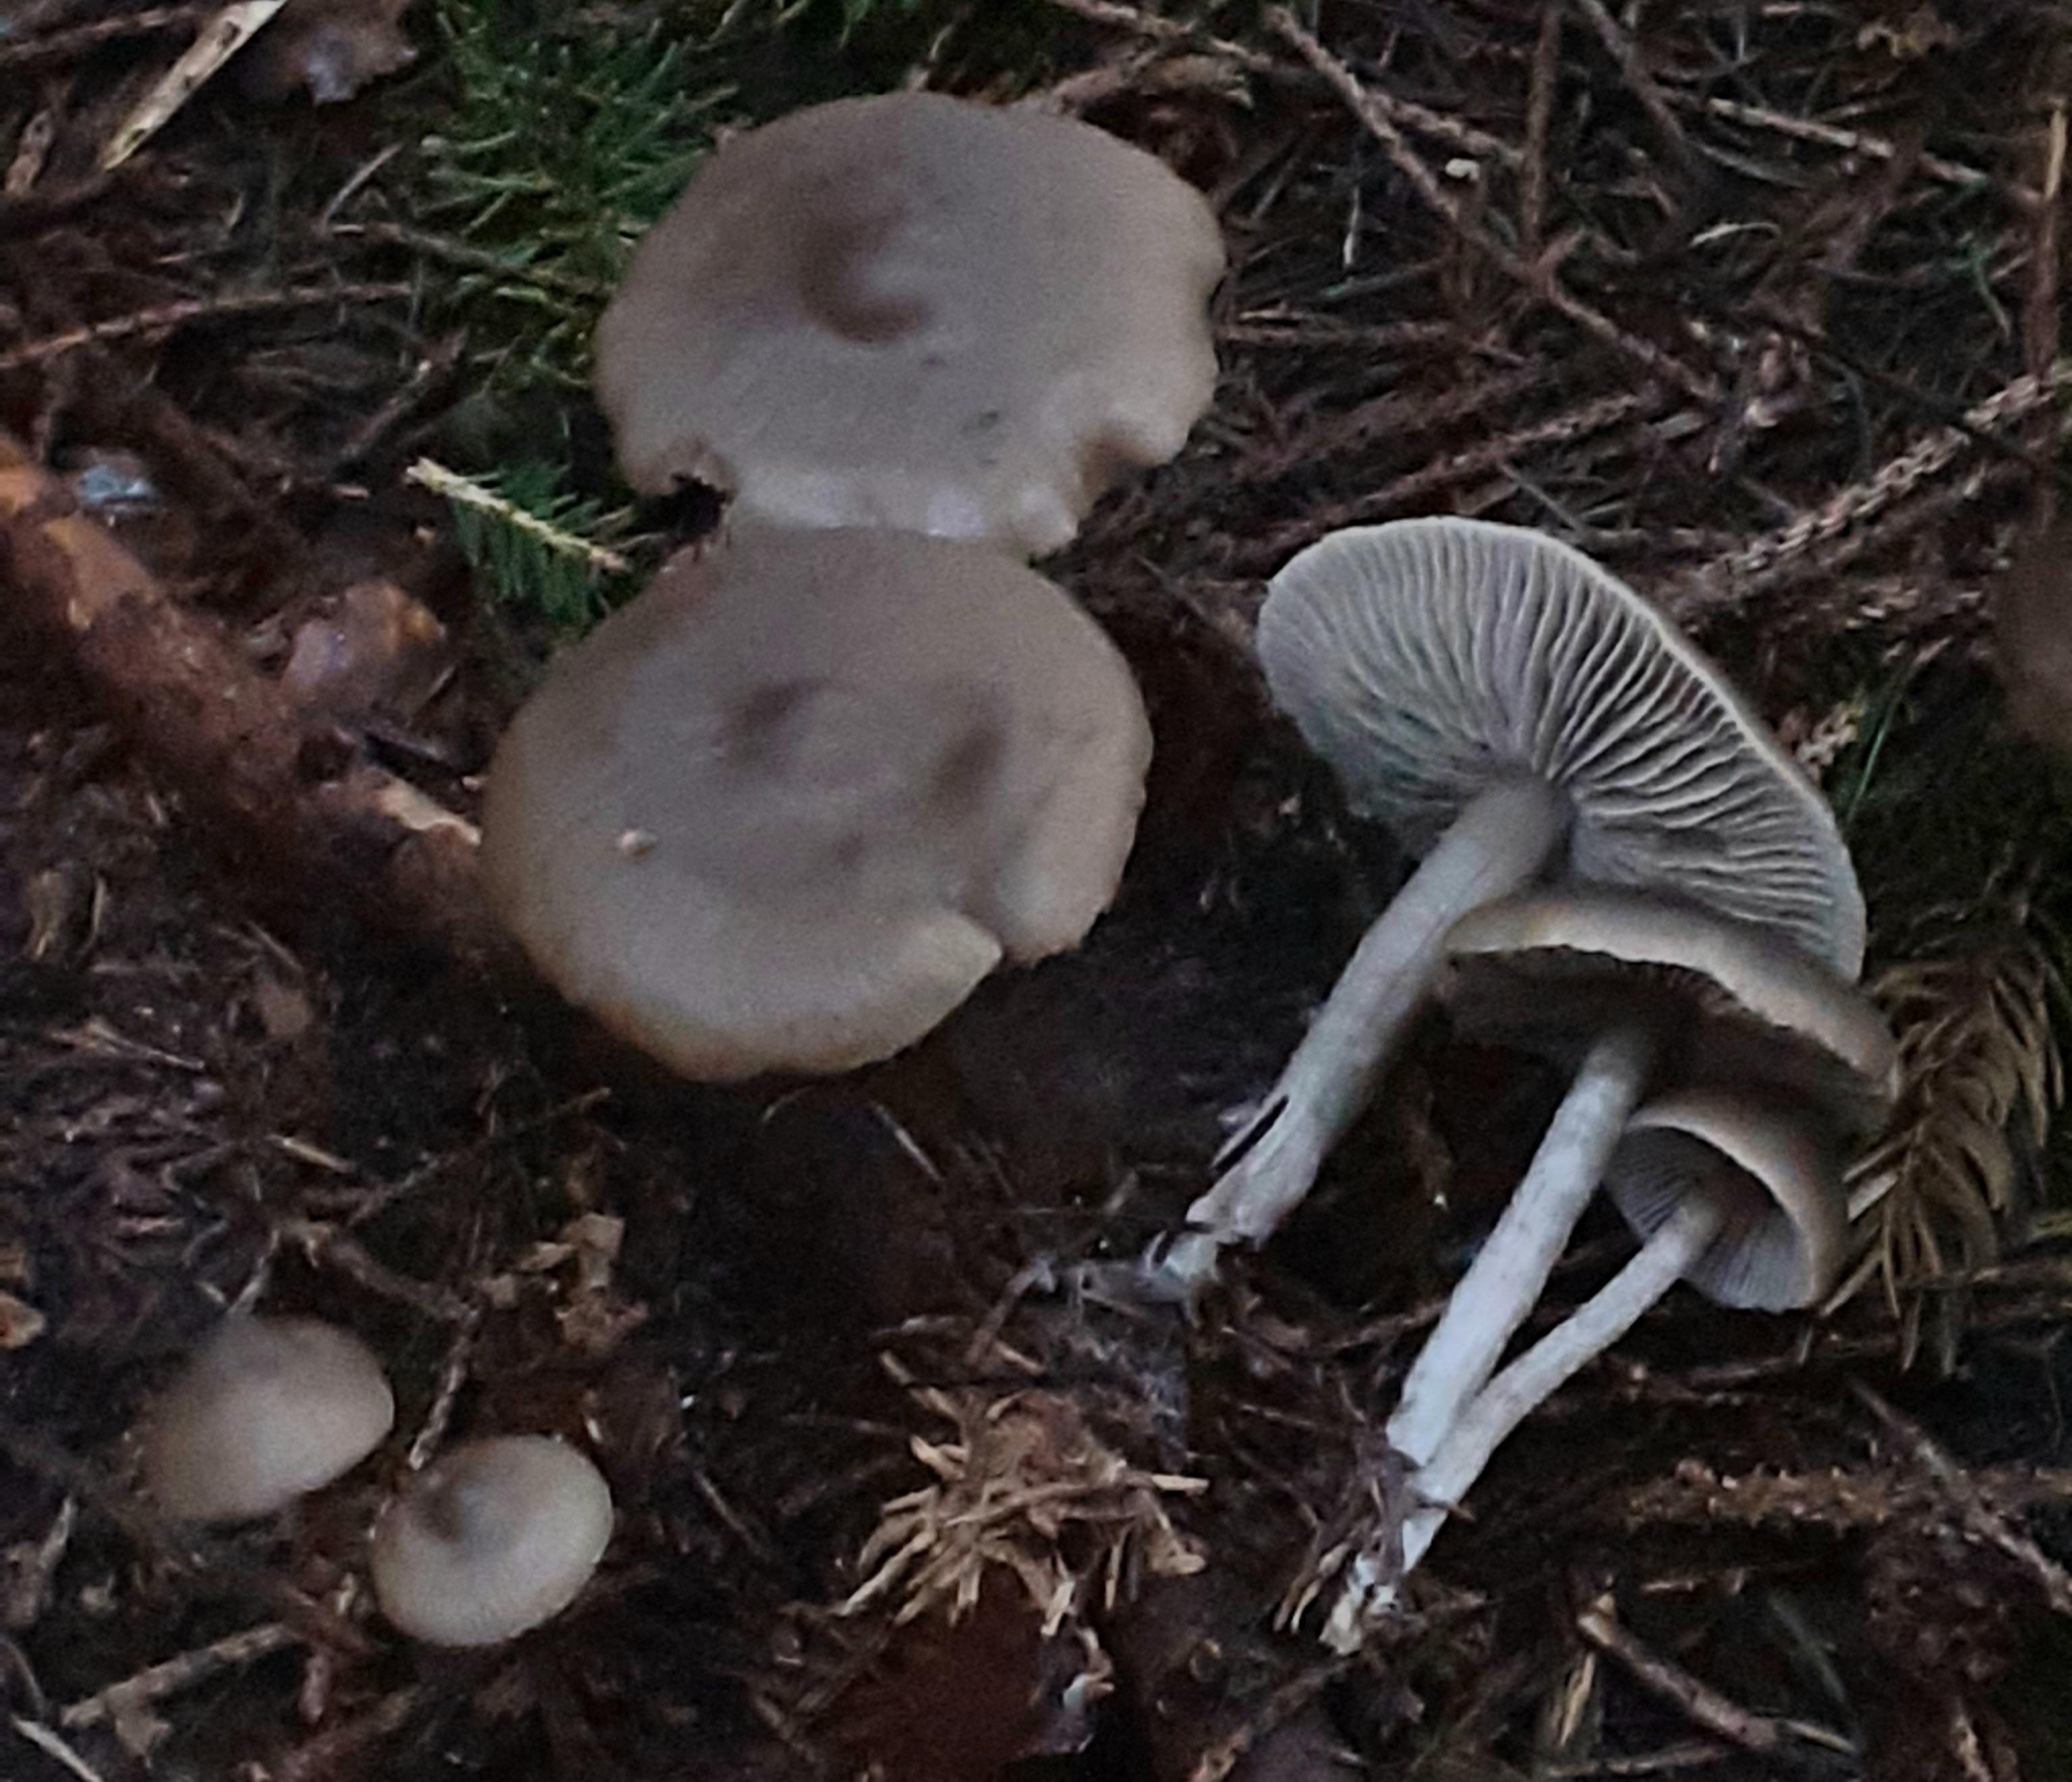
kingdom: Fungi
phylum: Basidiomycota
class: Agaricomycetes
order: Agaricales
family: Lyophyllaceae
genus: Myochromella
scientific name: Myochromella boudieri
